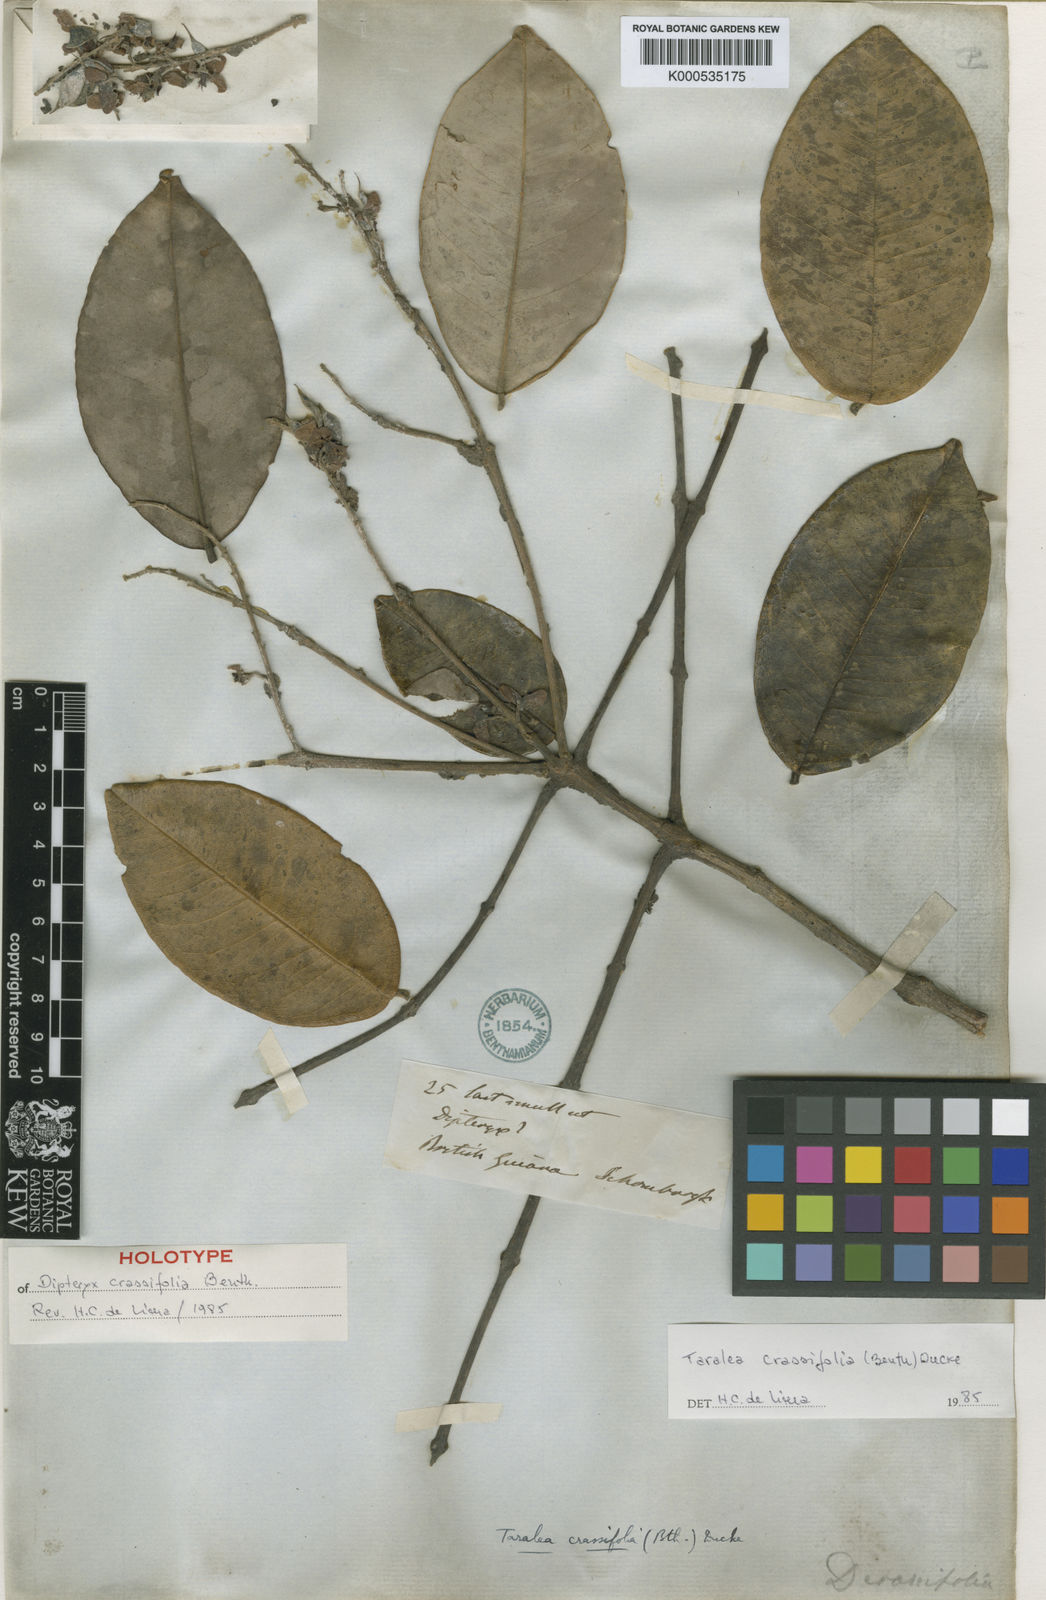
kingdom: Plantae
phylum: Tracheophyta
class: Magnoliopsida
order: Fabales
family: Fabaceae
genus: Taralea
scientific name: Taralea crassifolia
